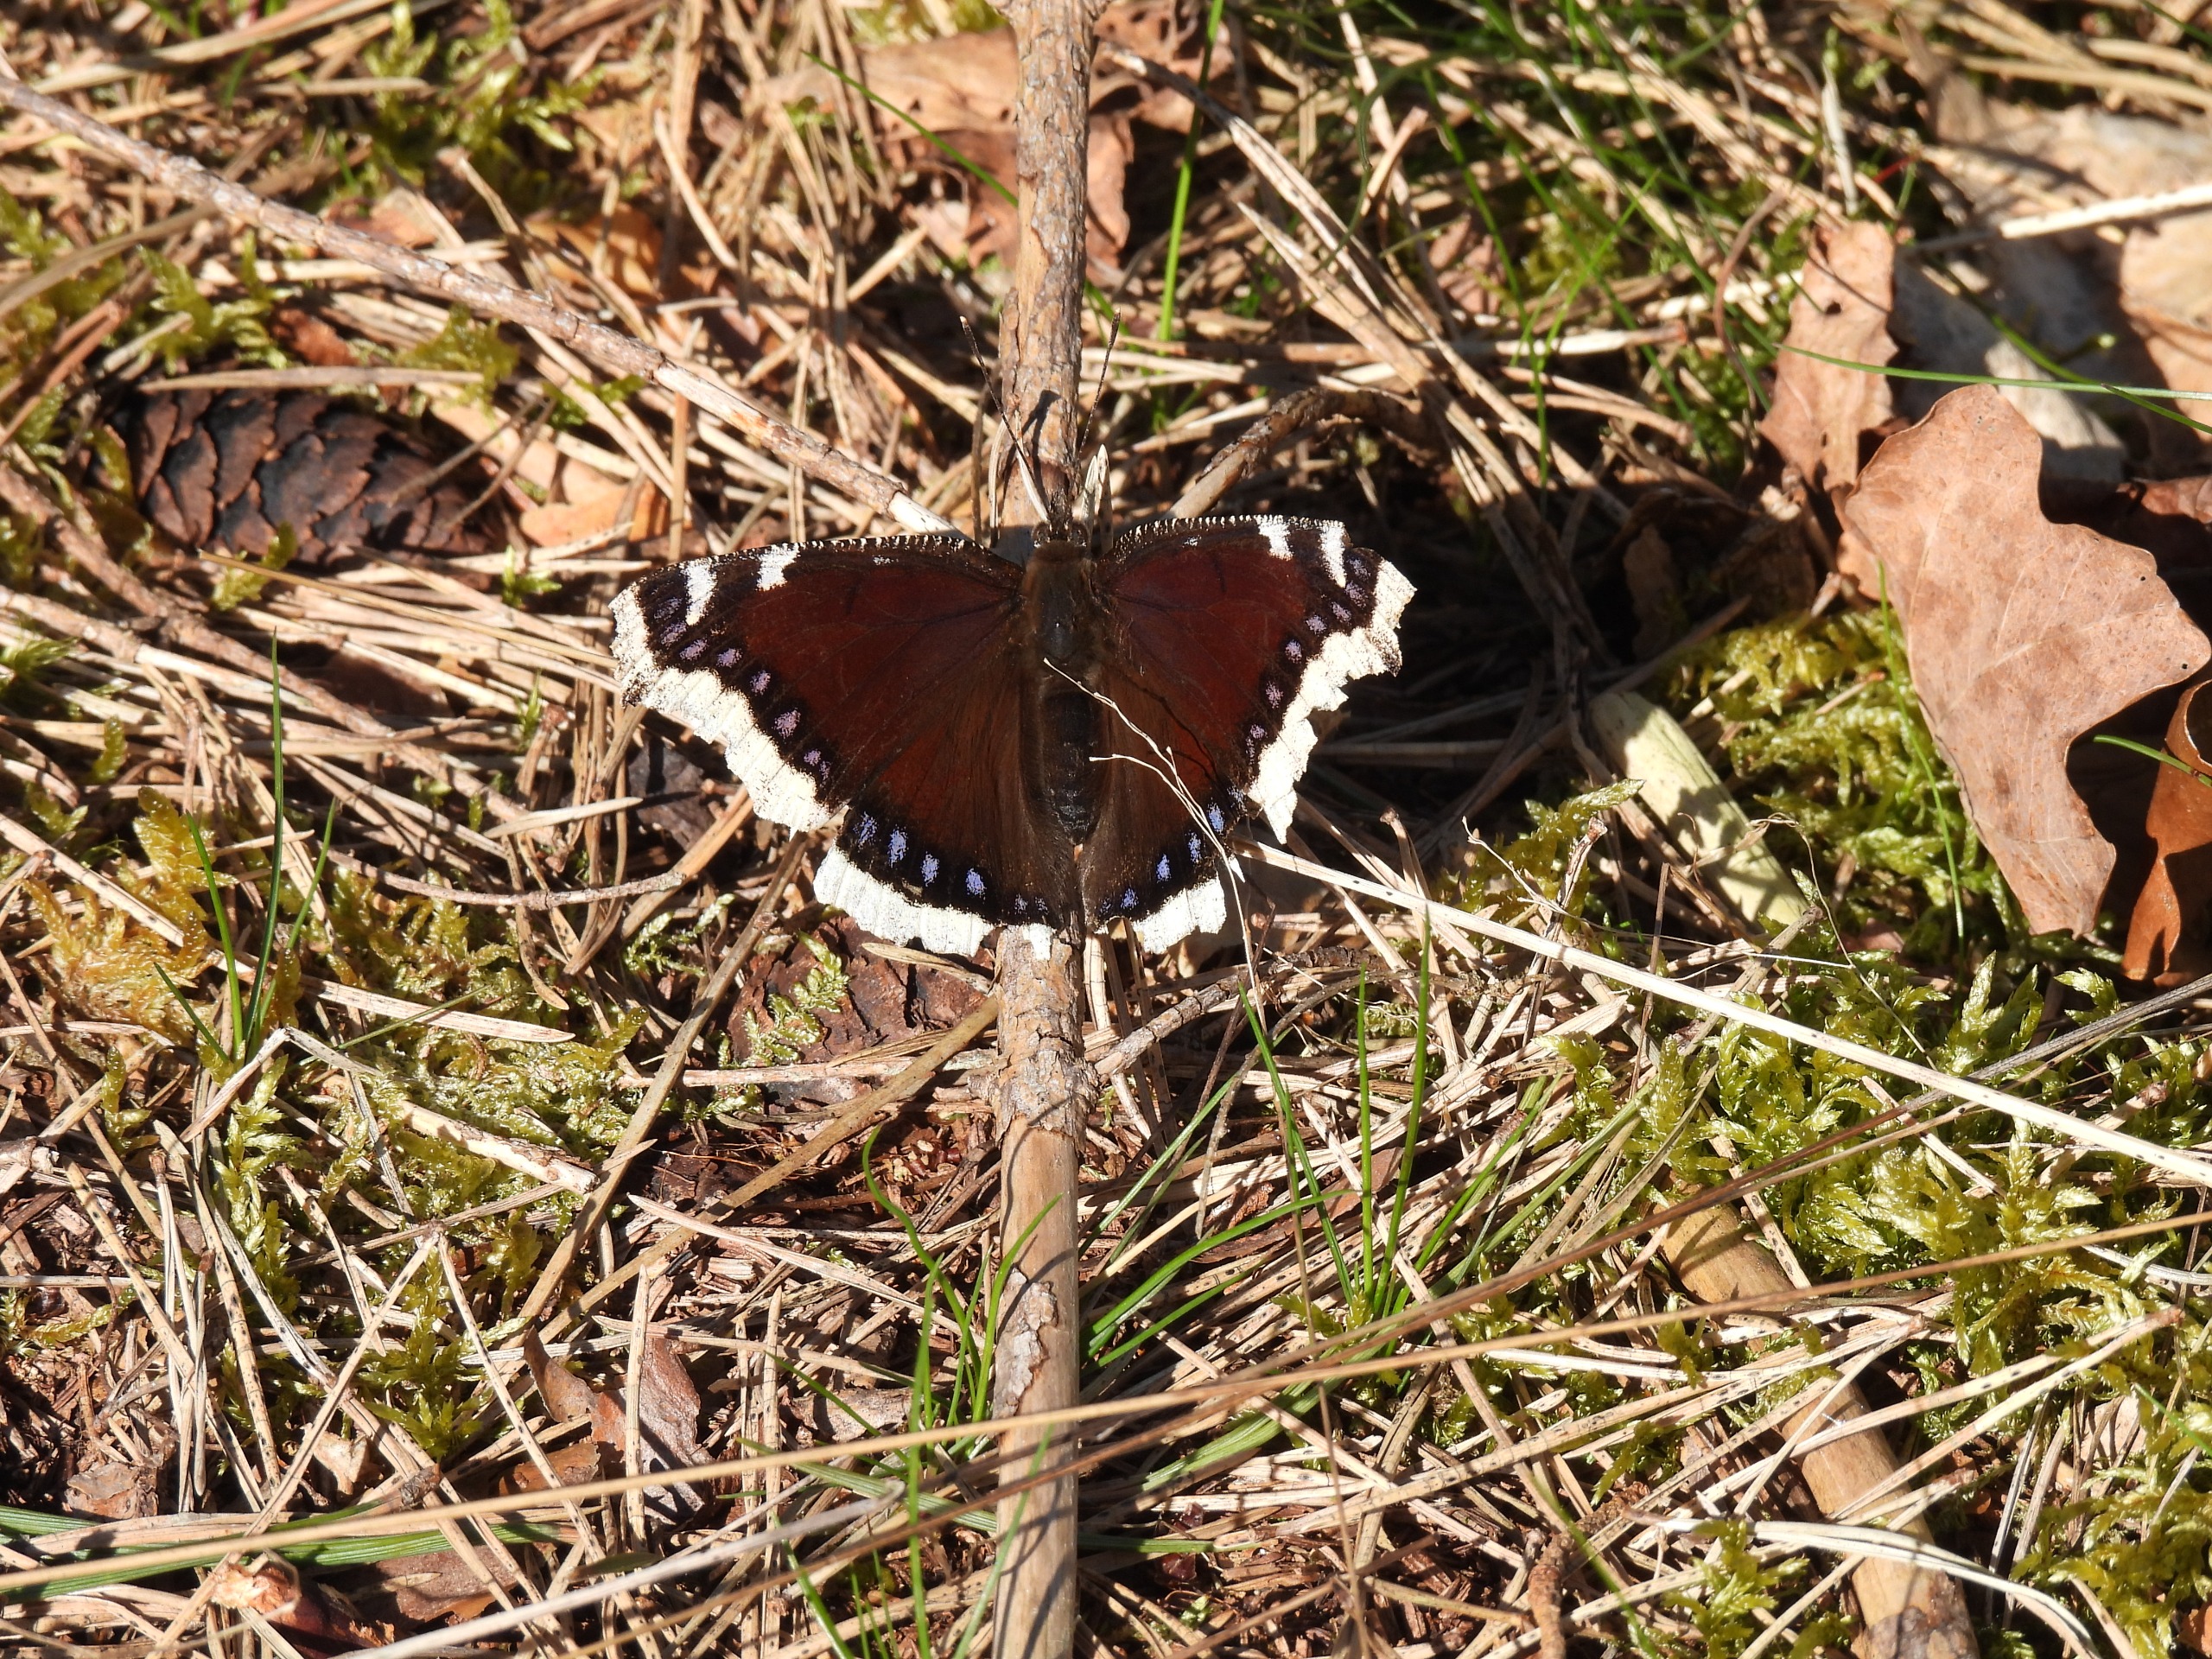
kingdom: Animalia
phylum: Arthropoda
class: Insecta
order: Lepidoptera
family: Nymphalidae
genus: Nymphalis
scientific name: Nymphalis antiopa
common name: Sørgekåbe
